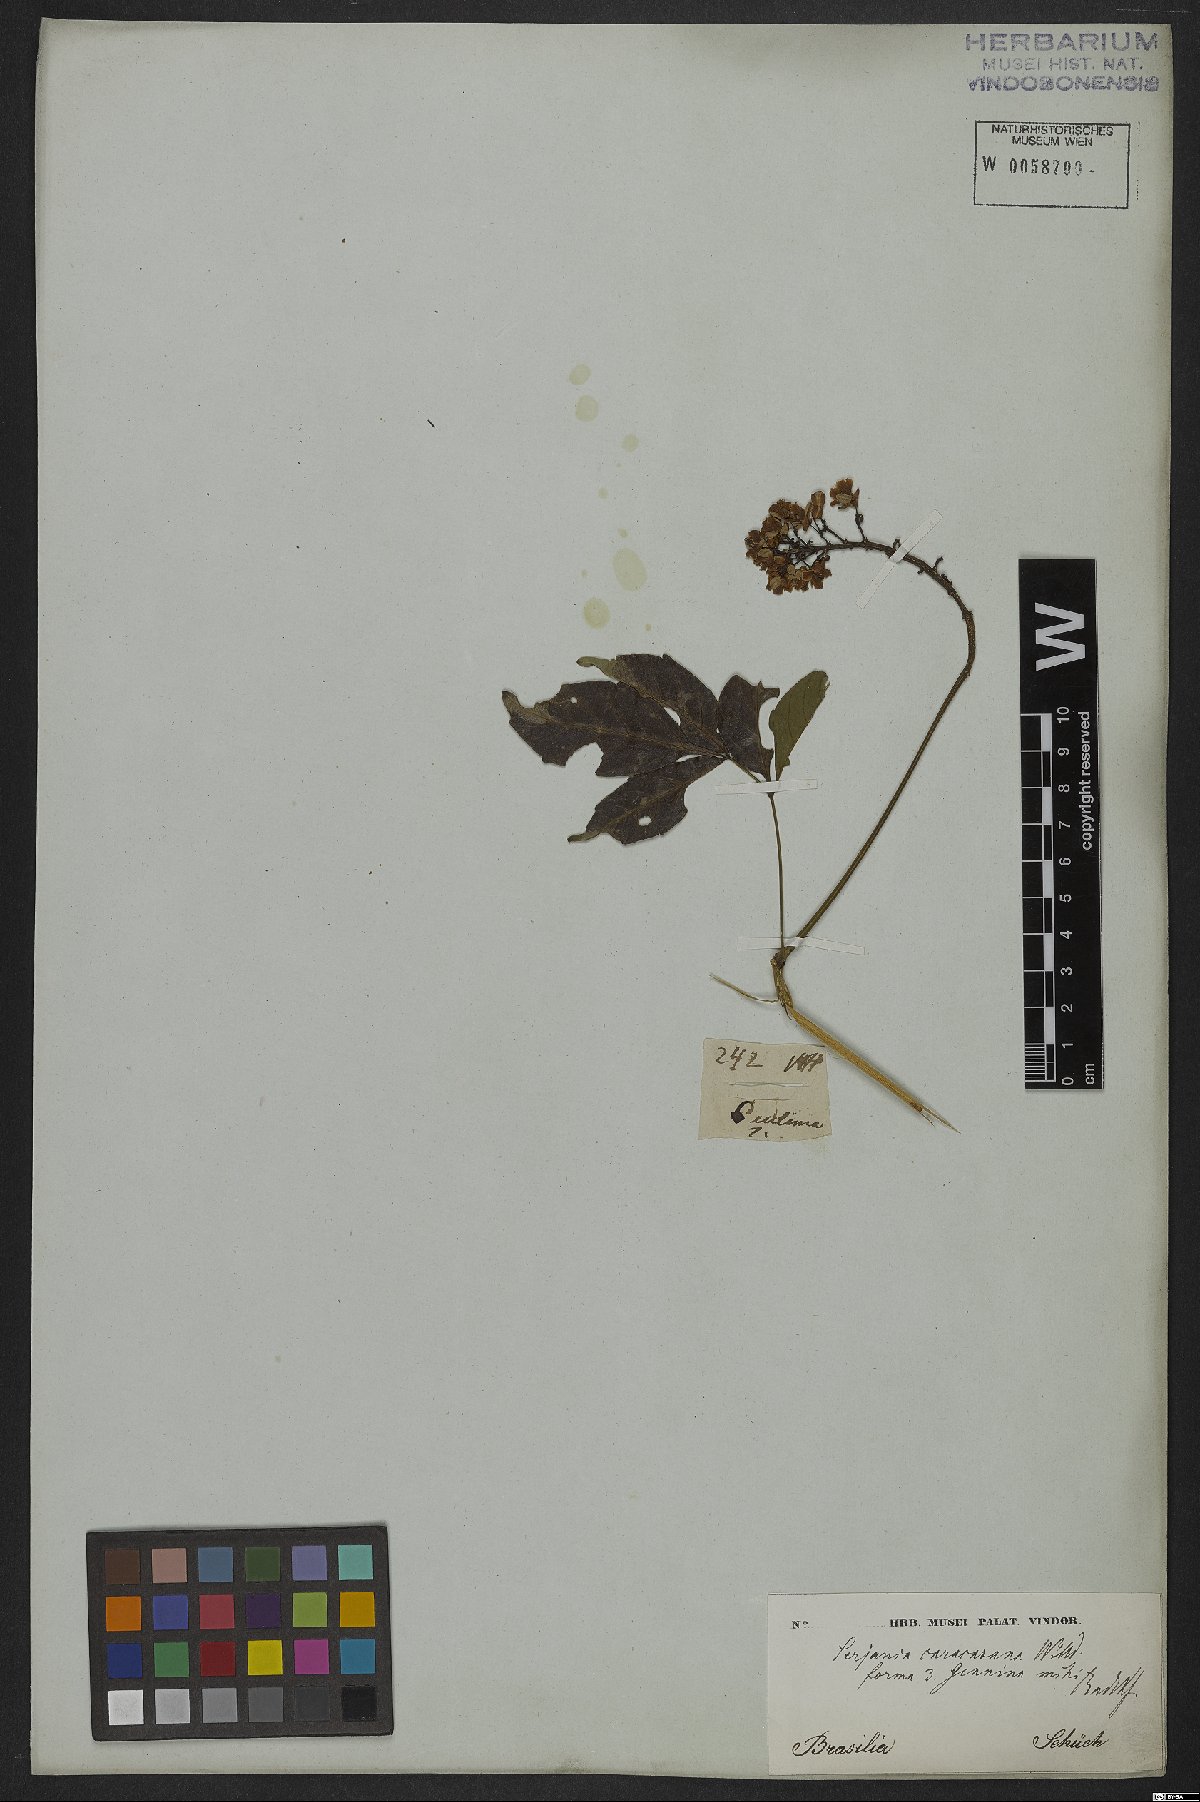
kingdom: Plantae
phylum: Tracheophyta
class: Magnoliopsida
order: Sapindales
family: Sapindaceae
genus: Serjania
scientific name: Serjania caracasana
